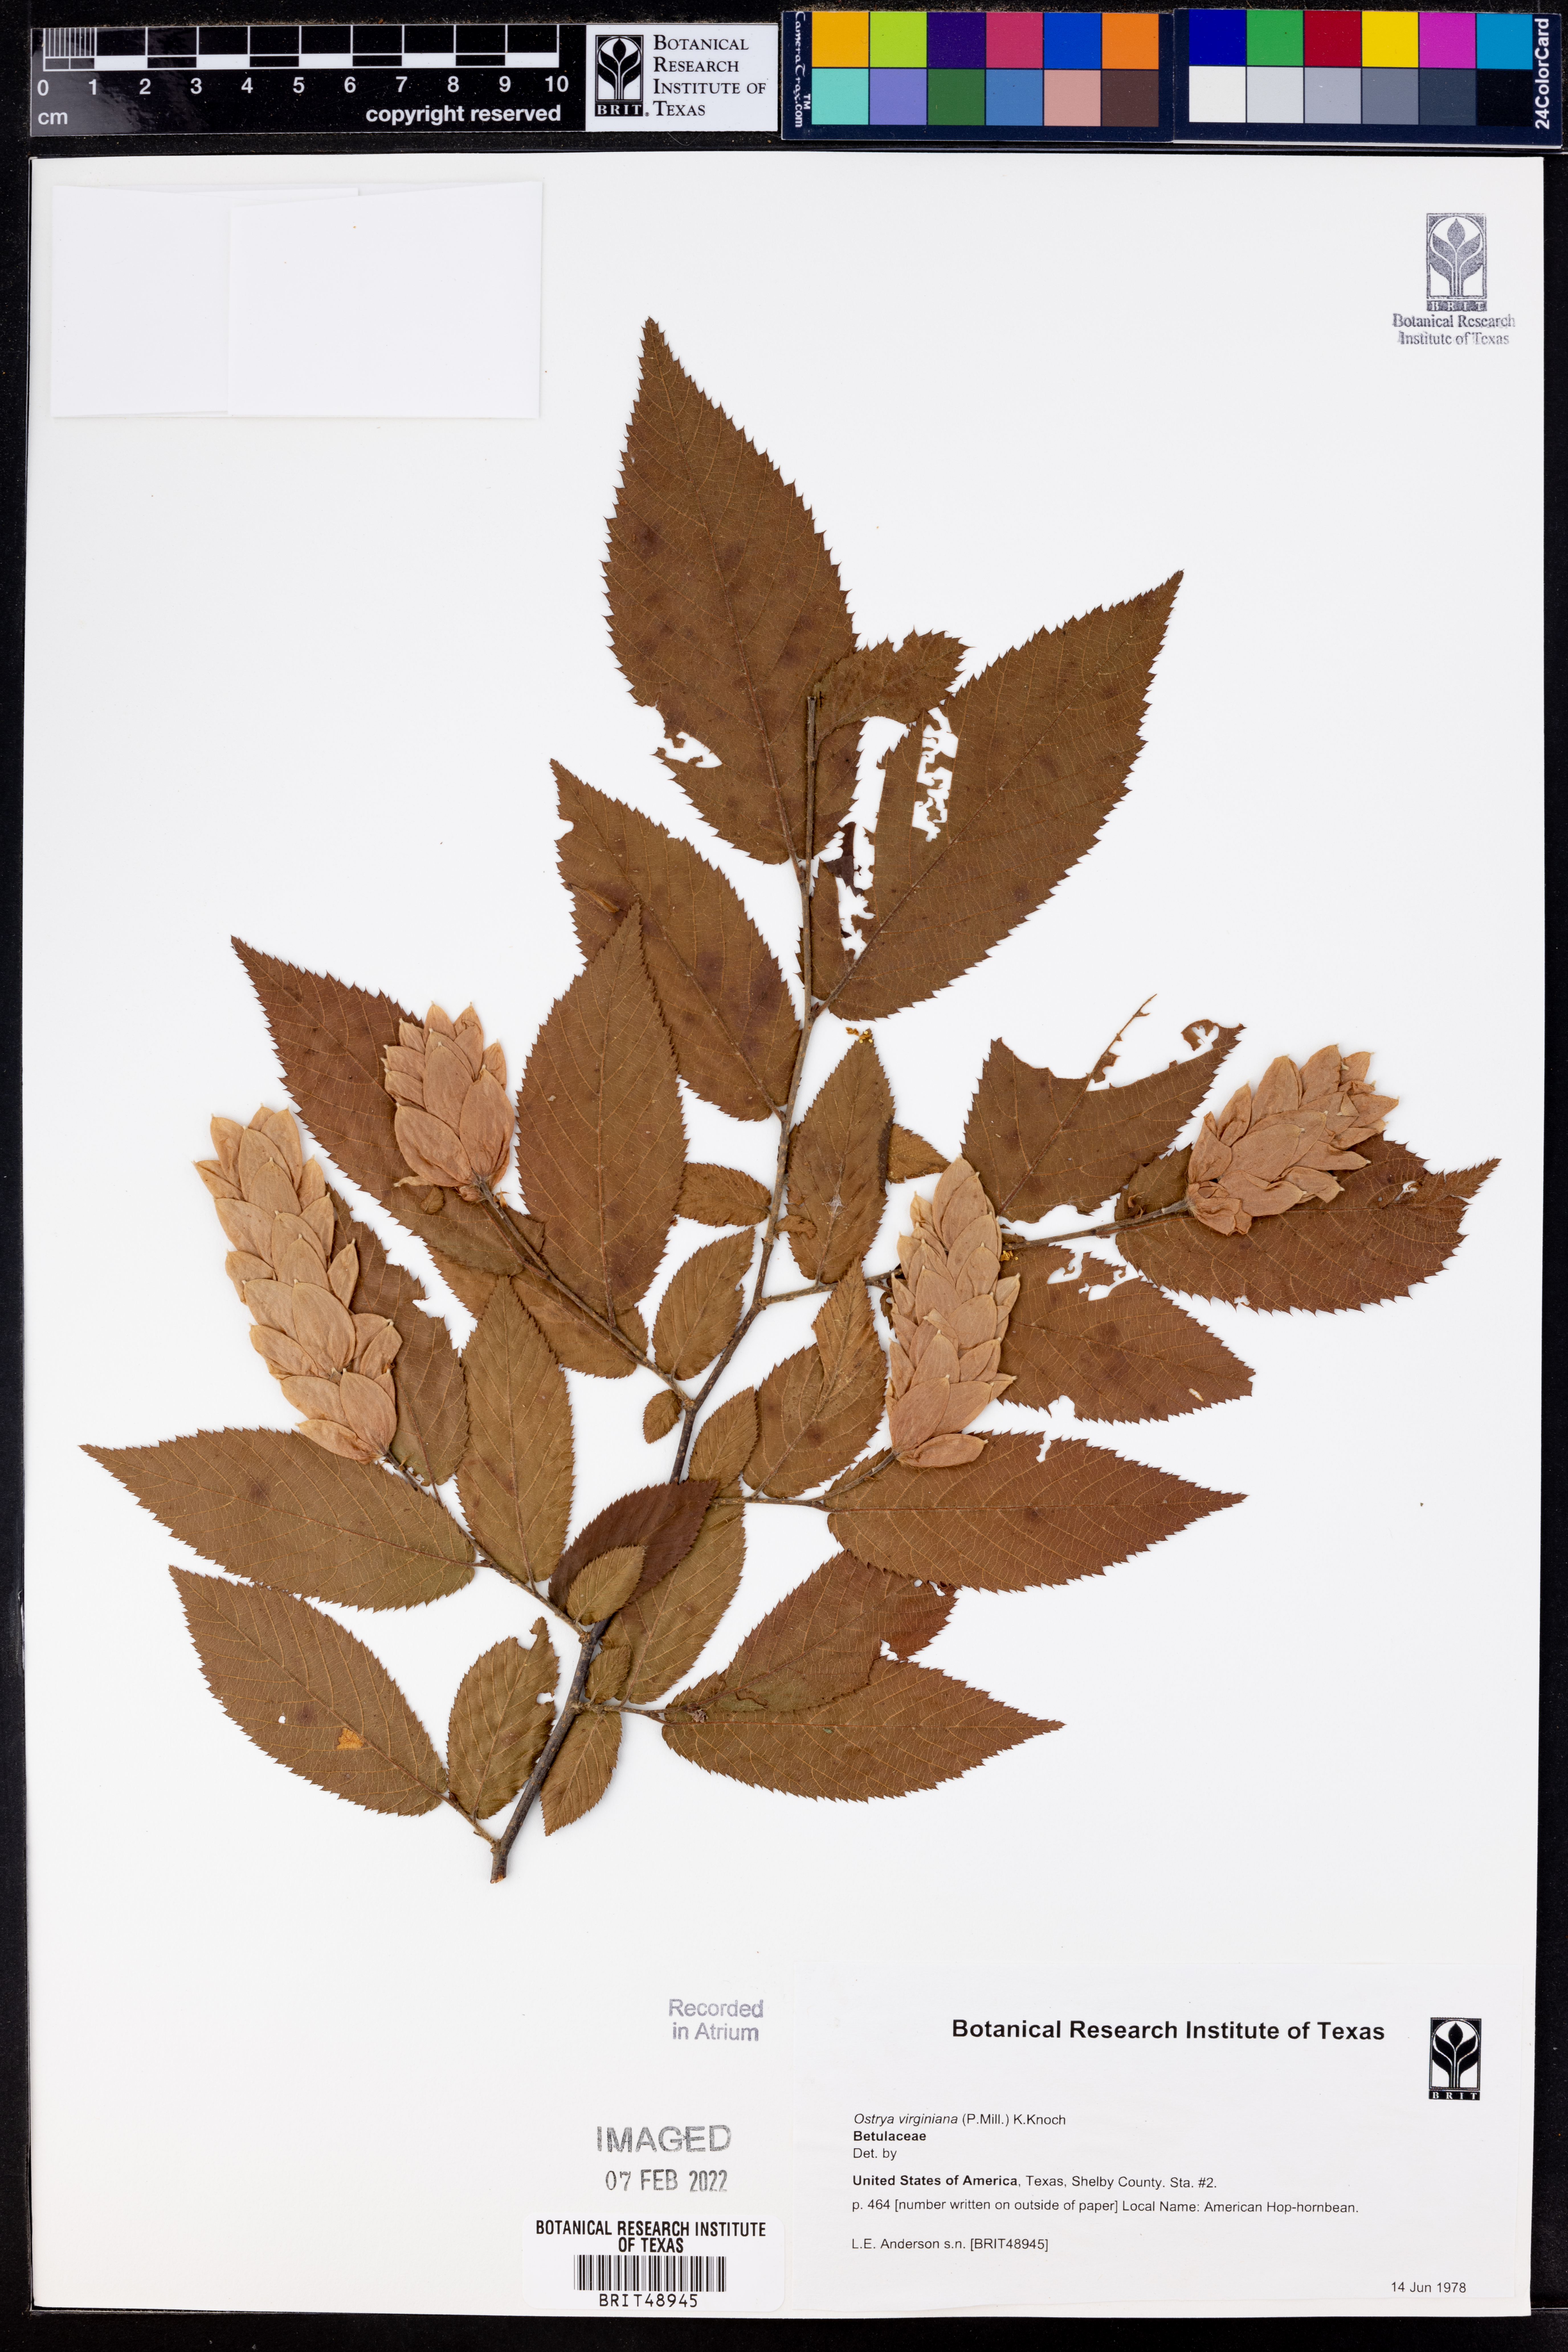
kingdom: Plantae
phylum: Tracheophyta
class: Magnoliopsida
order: Fagales
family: Betulaceae
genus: Ostrya
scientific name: Ostrya virginiana
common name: Ironwood
